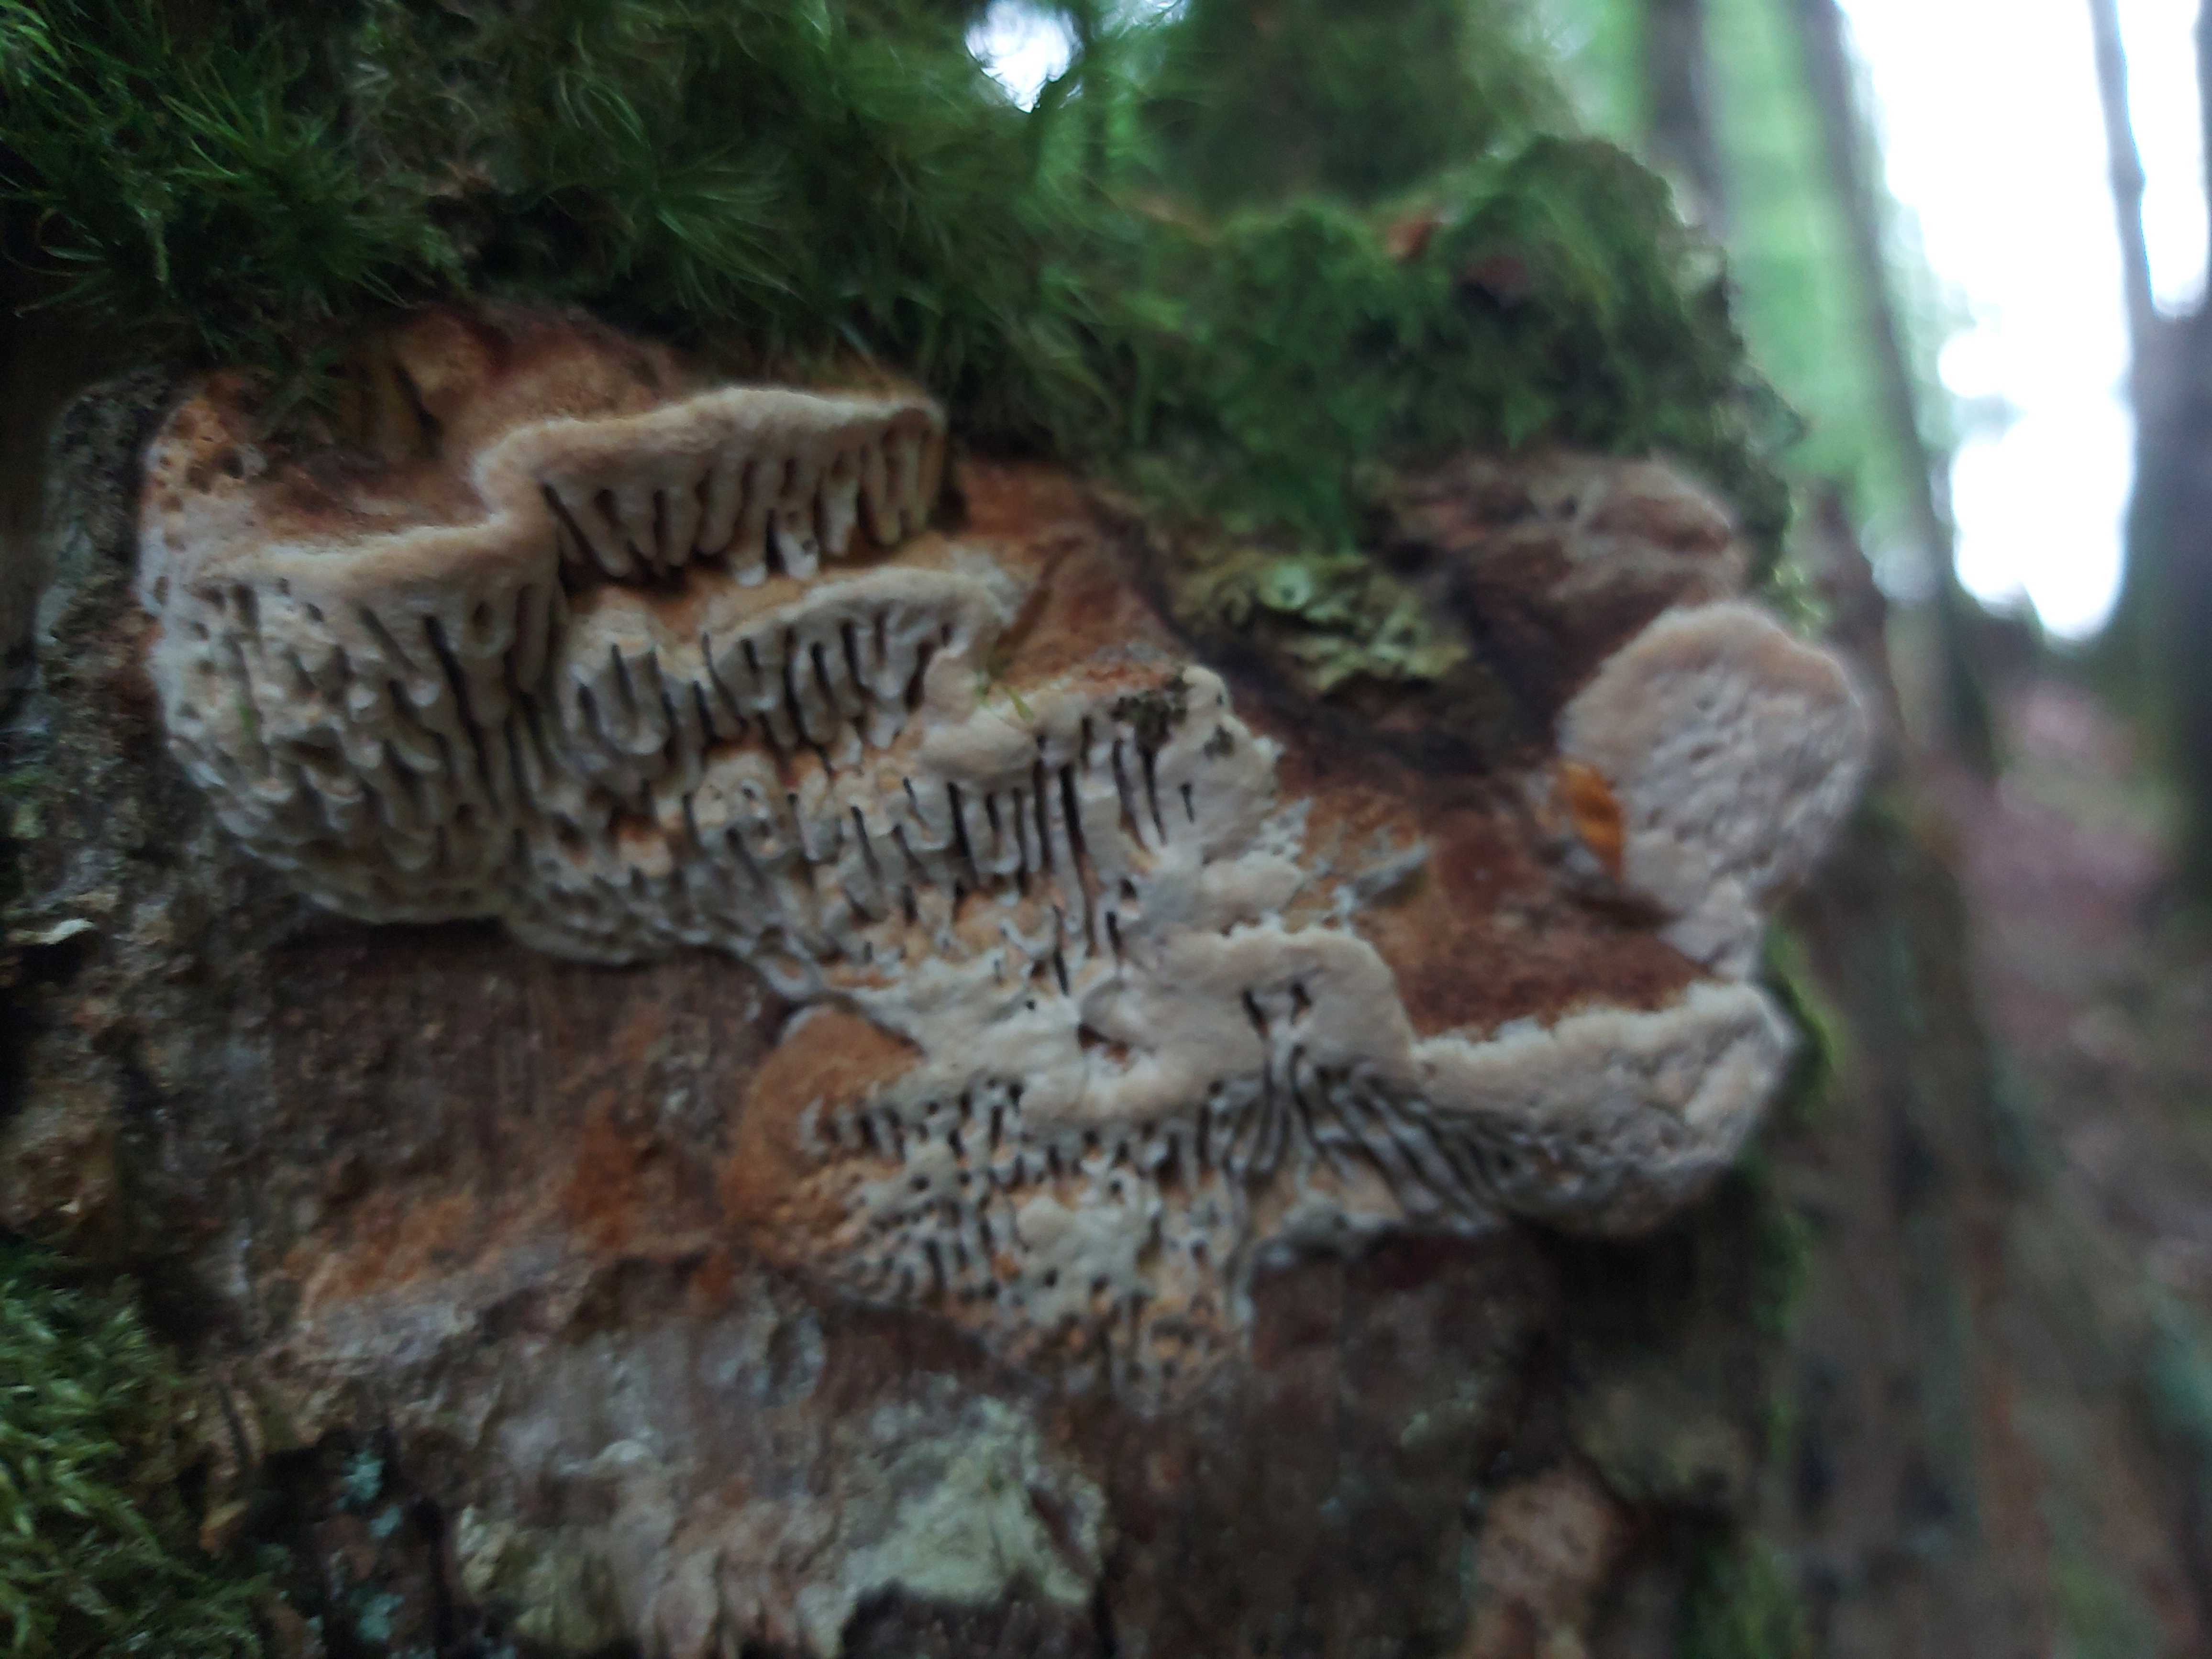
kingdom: Fungi
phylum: Basidiomycota
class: Agaricomycetes
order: Polyporales
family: Fomitopsidaceae
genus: Daedalea
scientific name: Daedalea quercina
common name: ege-labyrintsvamp
